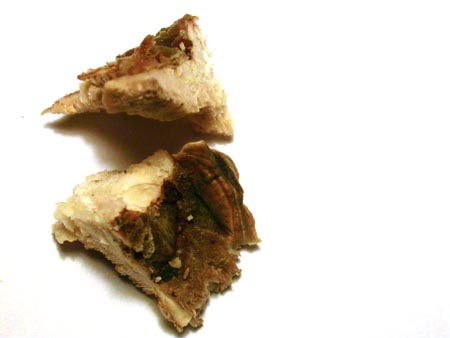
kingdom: Fungi
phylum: Basidiomycota
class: Agaricomycetes
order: Polyporales
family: Polyporaceae
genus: Trametes
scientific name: Trametes versicolor
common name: broget læderporesvamp
